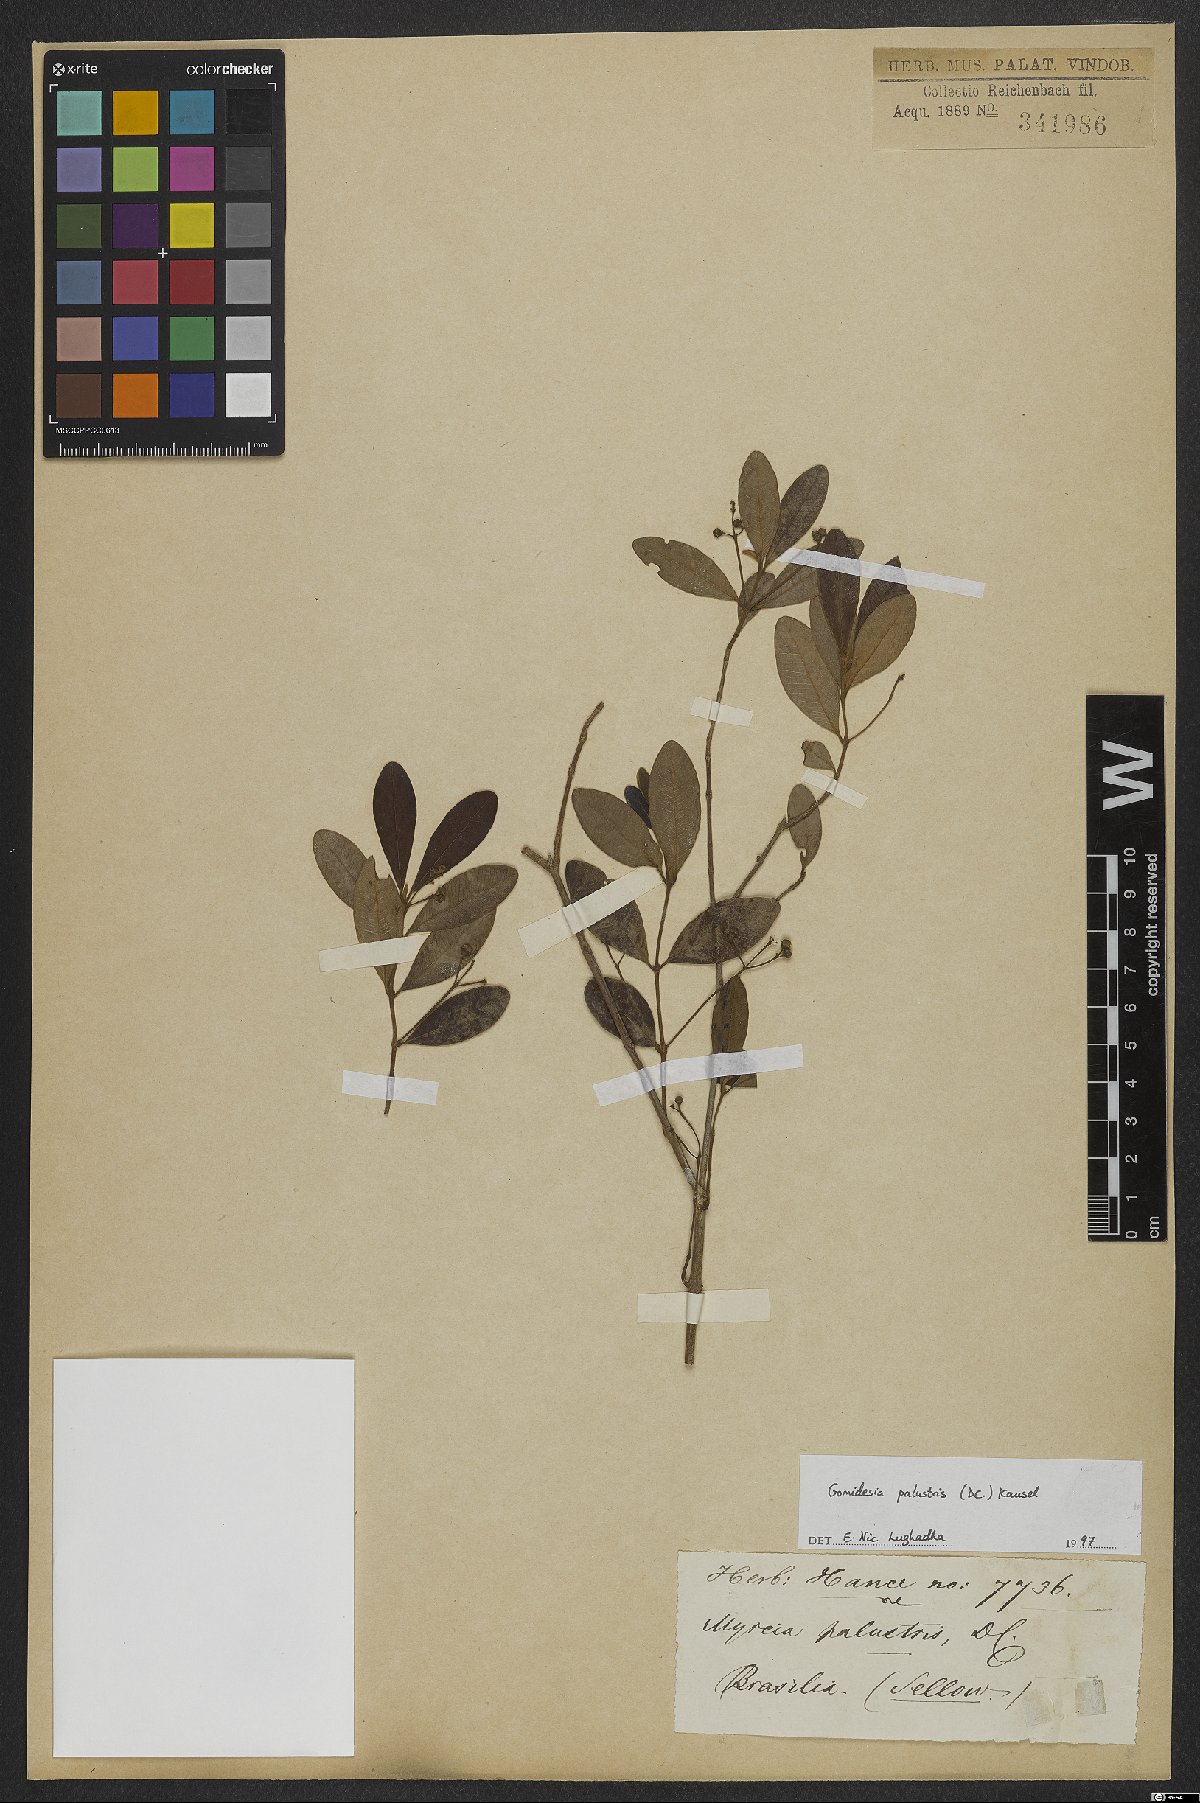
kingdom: Plantae
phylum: Tracheophyta
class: Magnoliopsida
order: Myrtales
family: Myrtaceae
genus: Myrcia
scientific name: Myrcia palustris
